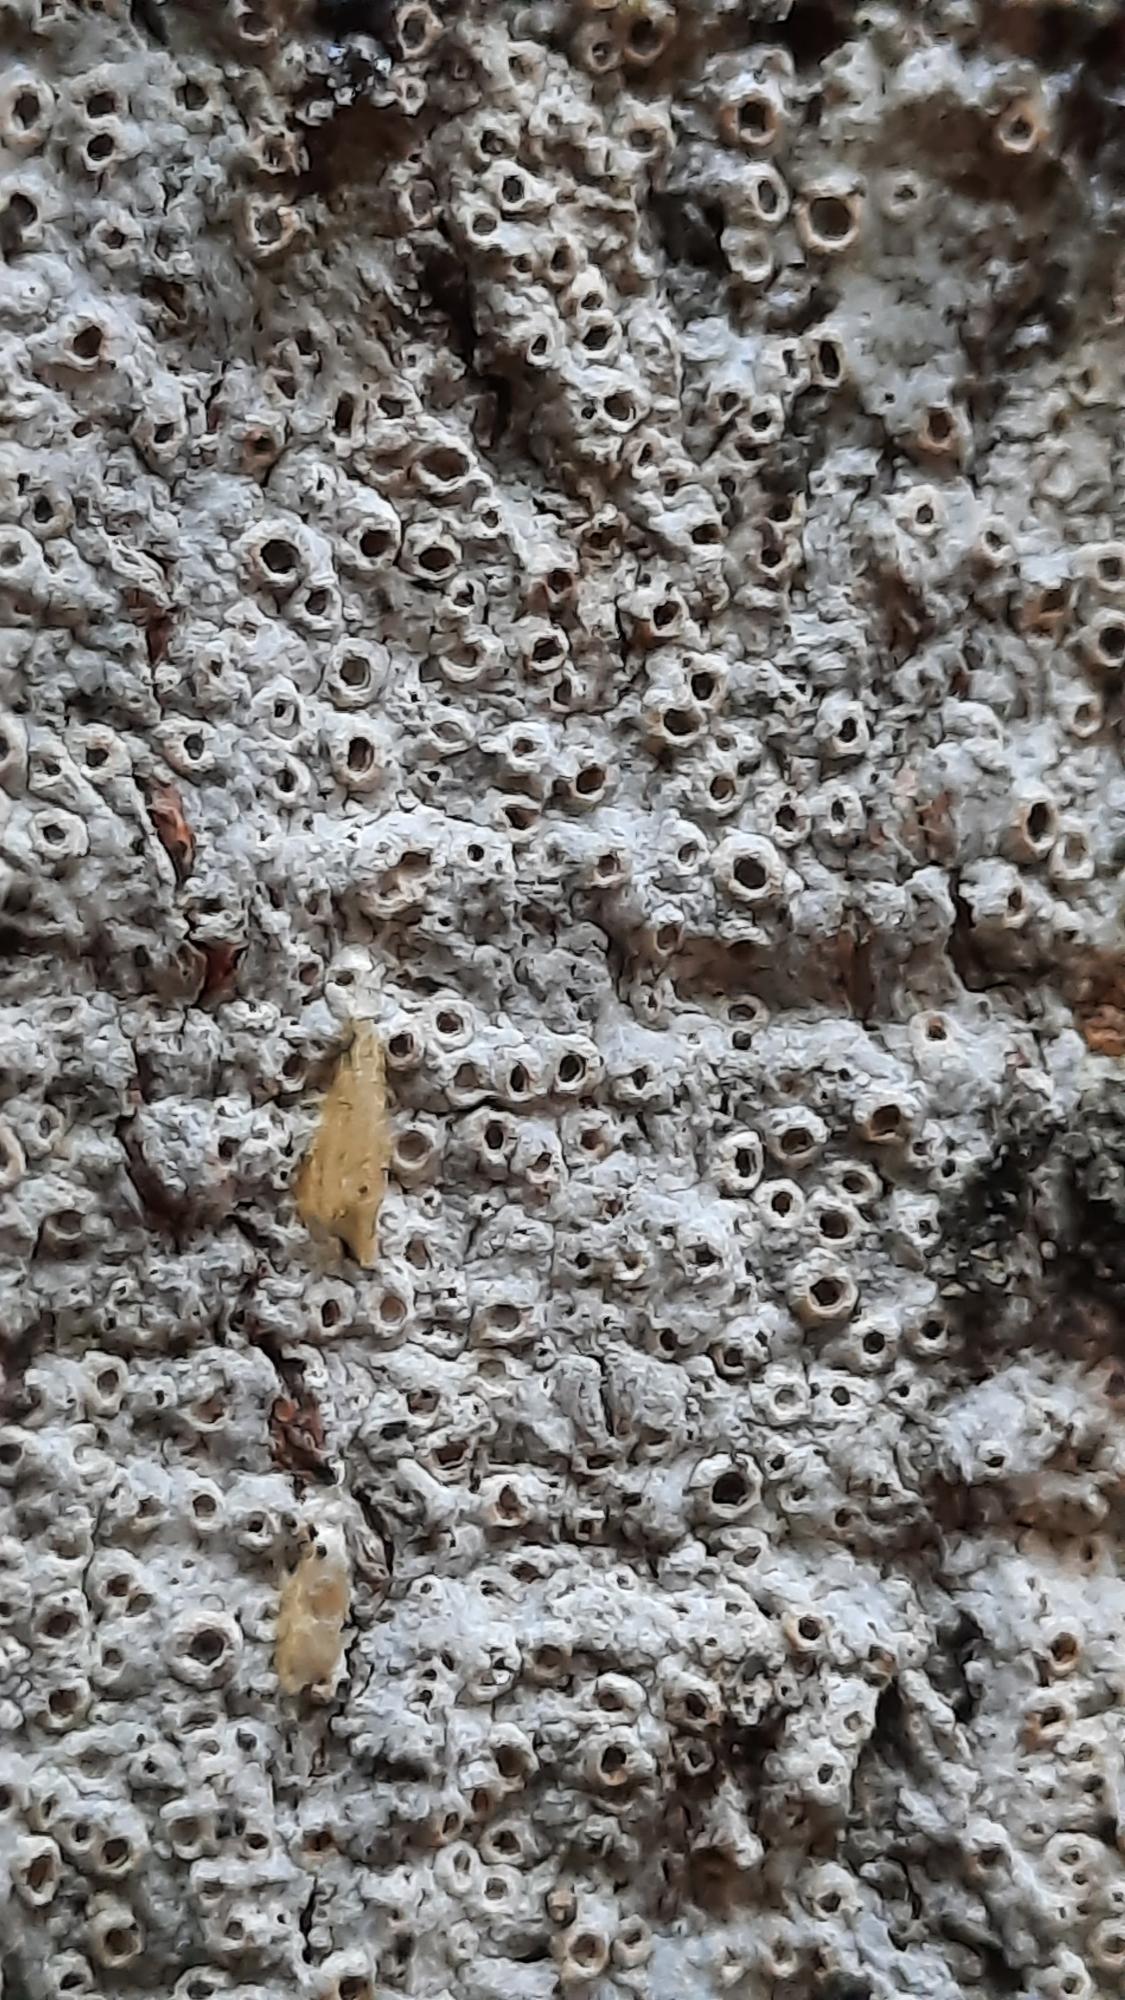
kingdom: Fungi
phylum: Ascomycota
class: Lecanoromycetes
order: Ostropales
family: Graphidaceae
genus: Thelotrema
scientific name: Thelotrema lepadinum
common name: Almindelig slørkantlav
